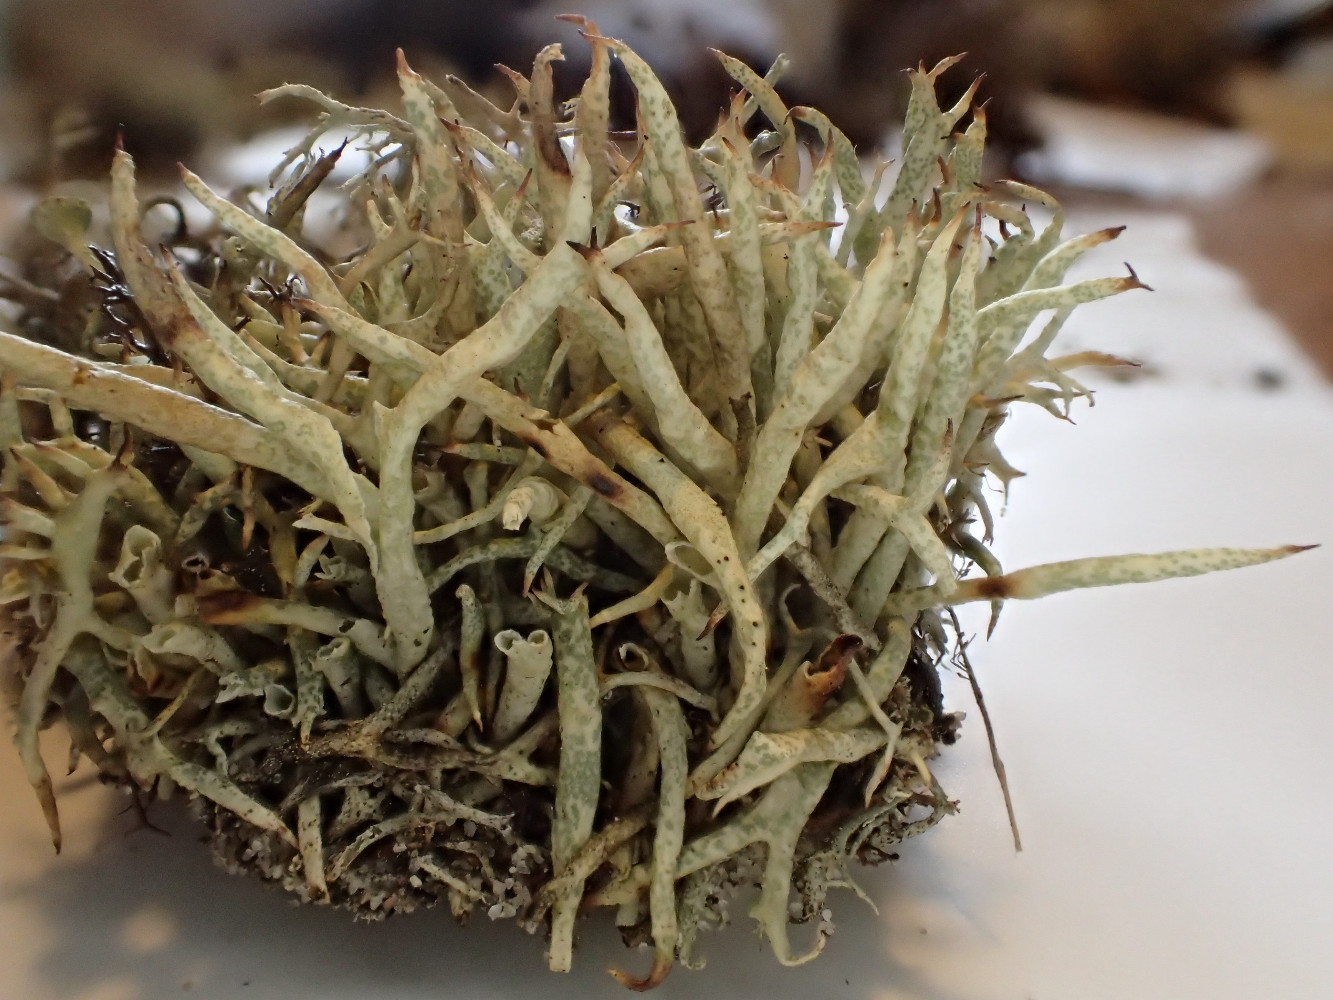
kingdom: Fungi
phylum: Ascomycota
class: Lecanoromycetes
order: Lecanorales
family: Cladoniaceae
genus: Cladonia
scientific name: Cladonia uncialis
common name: pigget bægerlav
